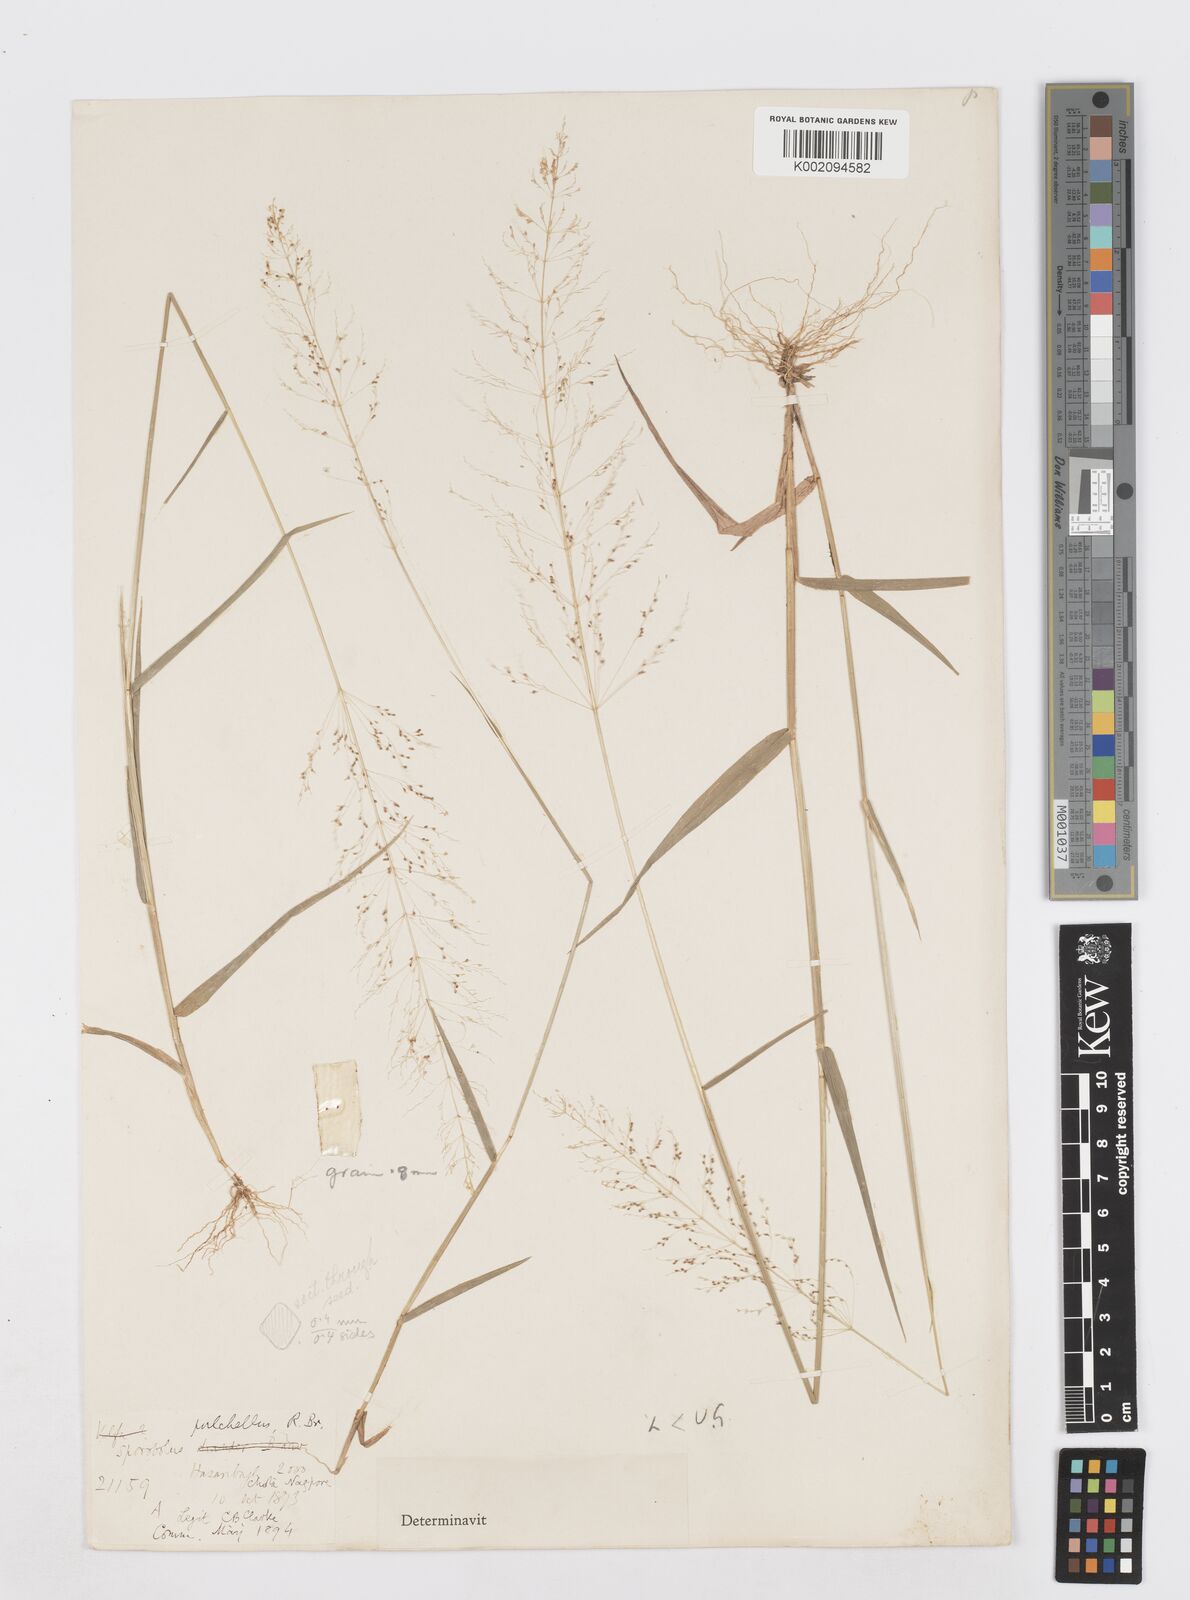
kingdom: Plantae
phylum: Tracheophyta
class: Liliopsida
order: Poales
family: Poaceae
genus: Sporobolus
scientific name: Sporobolus tetragonus
